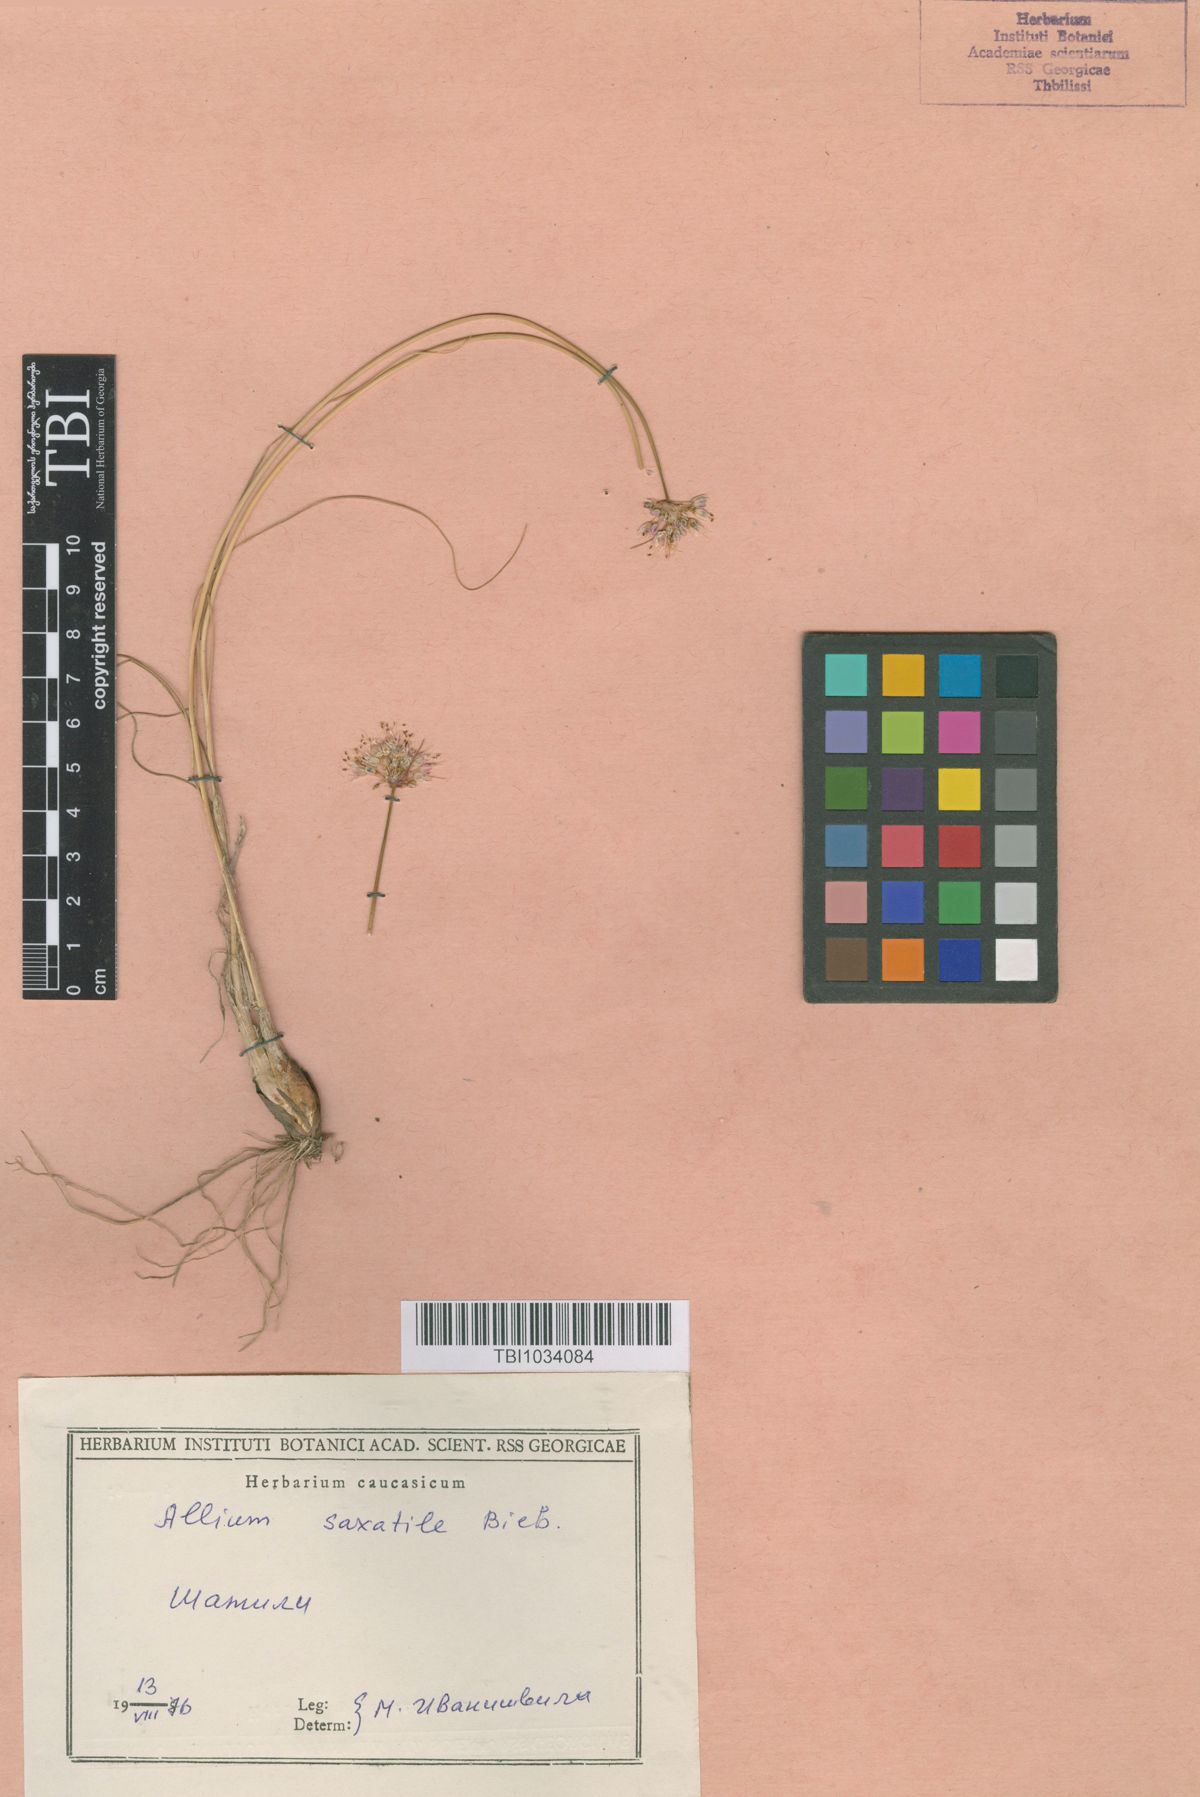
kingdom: Plantae
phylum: Tracheophyta
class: Liliopsida
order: Asparagales
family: Amaryllidaceae
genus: Allium
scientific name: Allium saxatile
